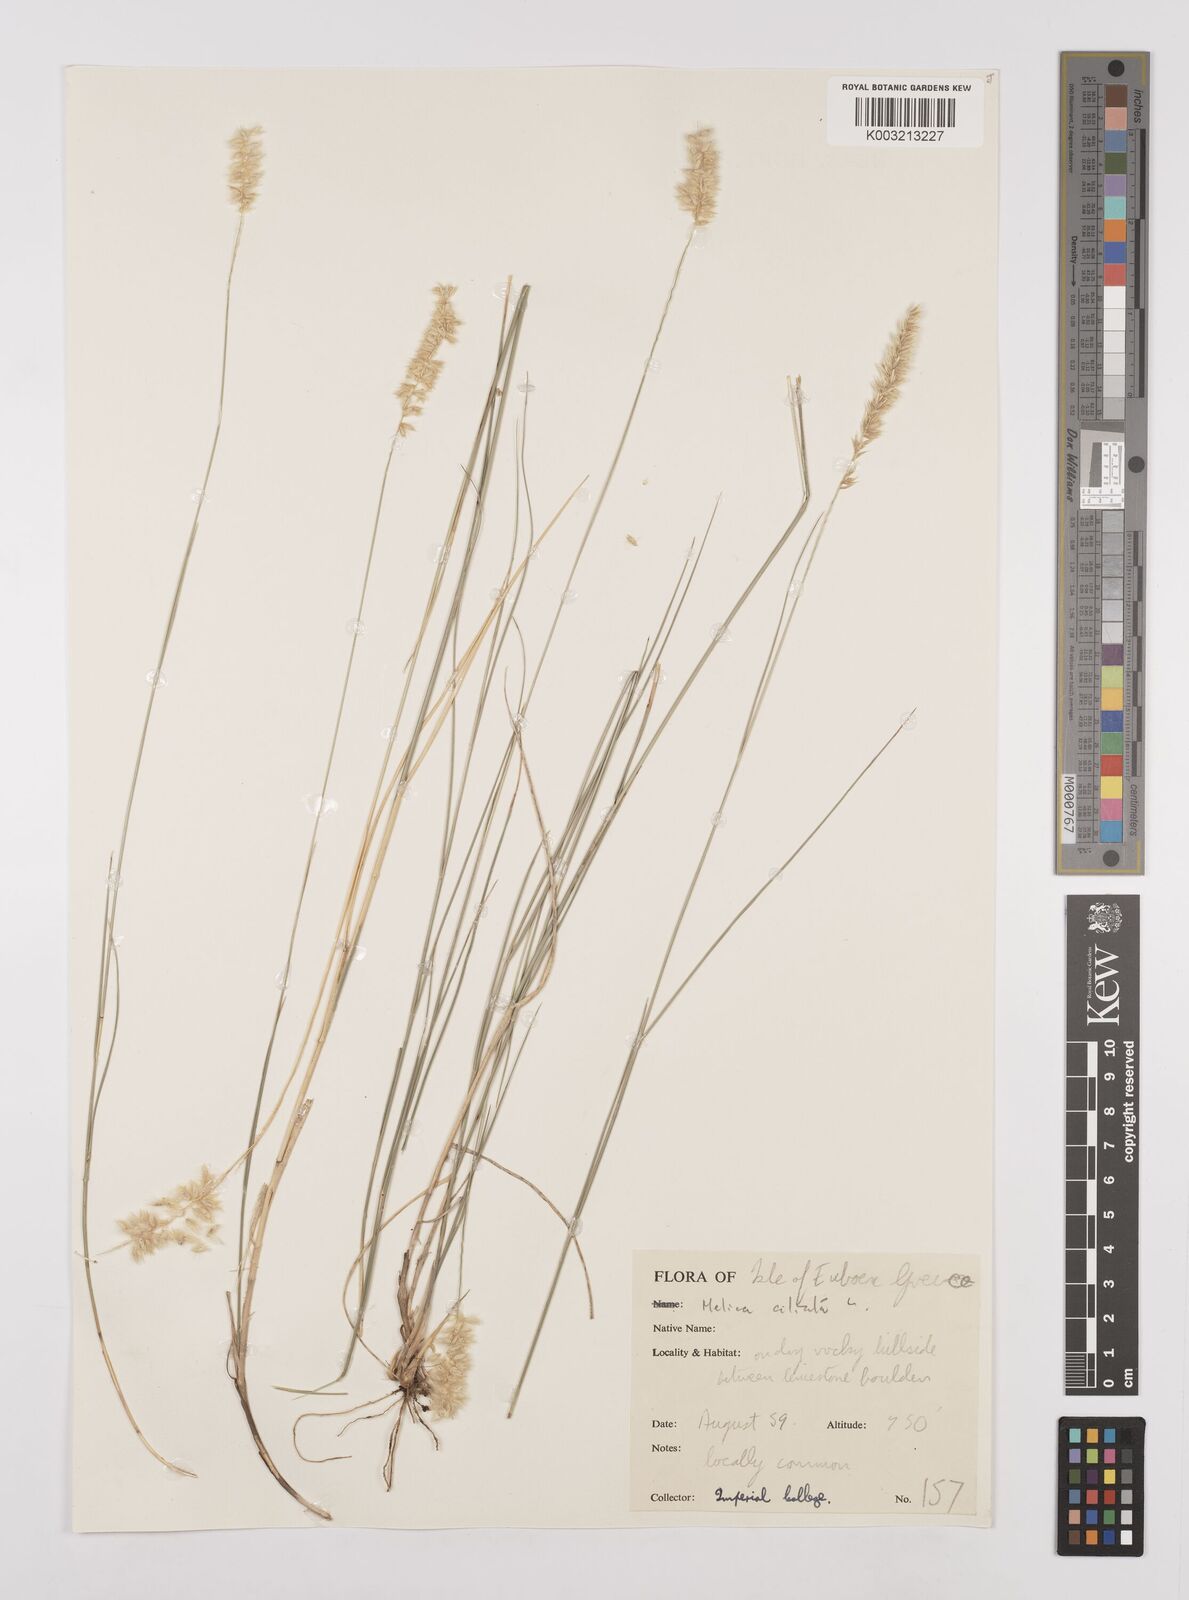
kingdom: Plantae
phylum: Tracheophyta
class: Liliopsida
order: Poales
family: Poaceae
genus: Melica
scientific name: Melica ciliata
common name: Hairy melicgrass
